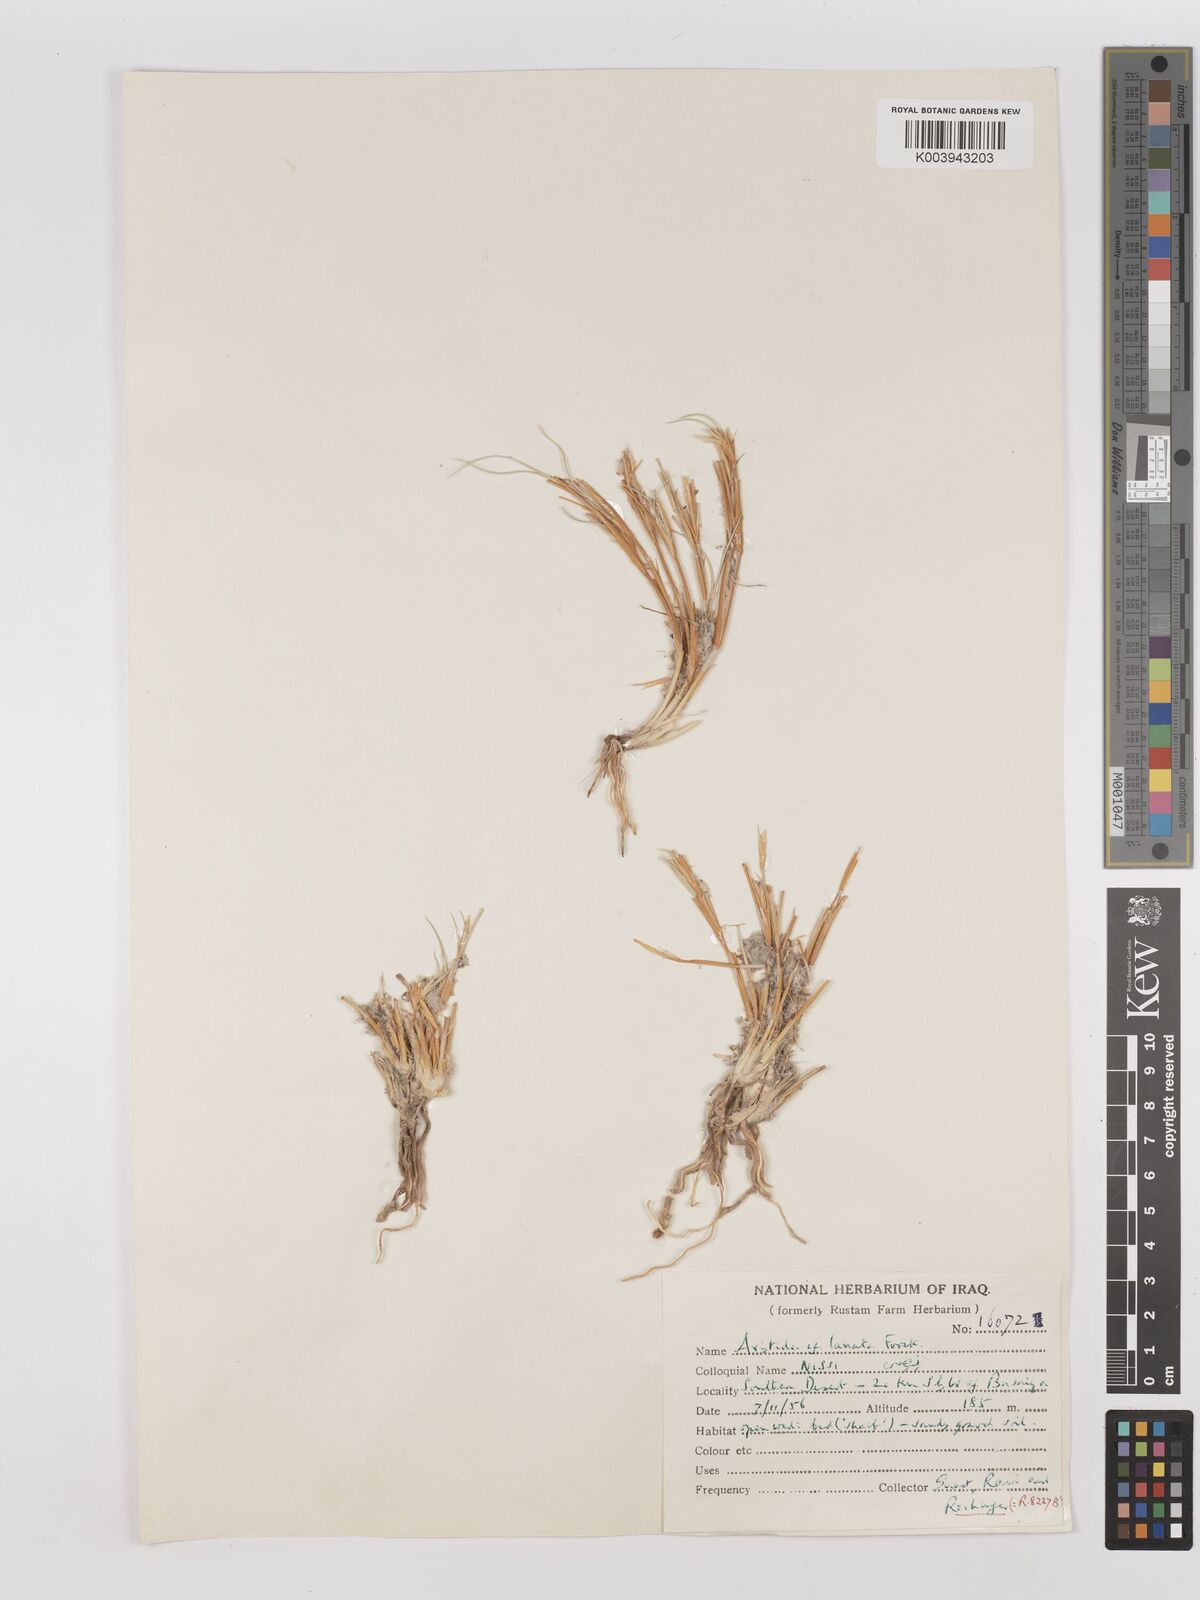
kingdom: Plantae
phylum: Tracheophyta
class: Liliopsida
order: Poales
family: Poaceae
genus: Aristida
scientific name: Aristida
